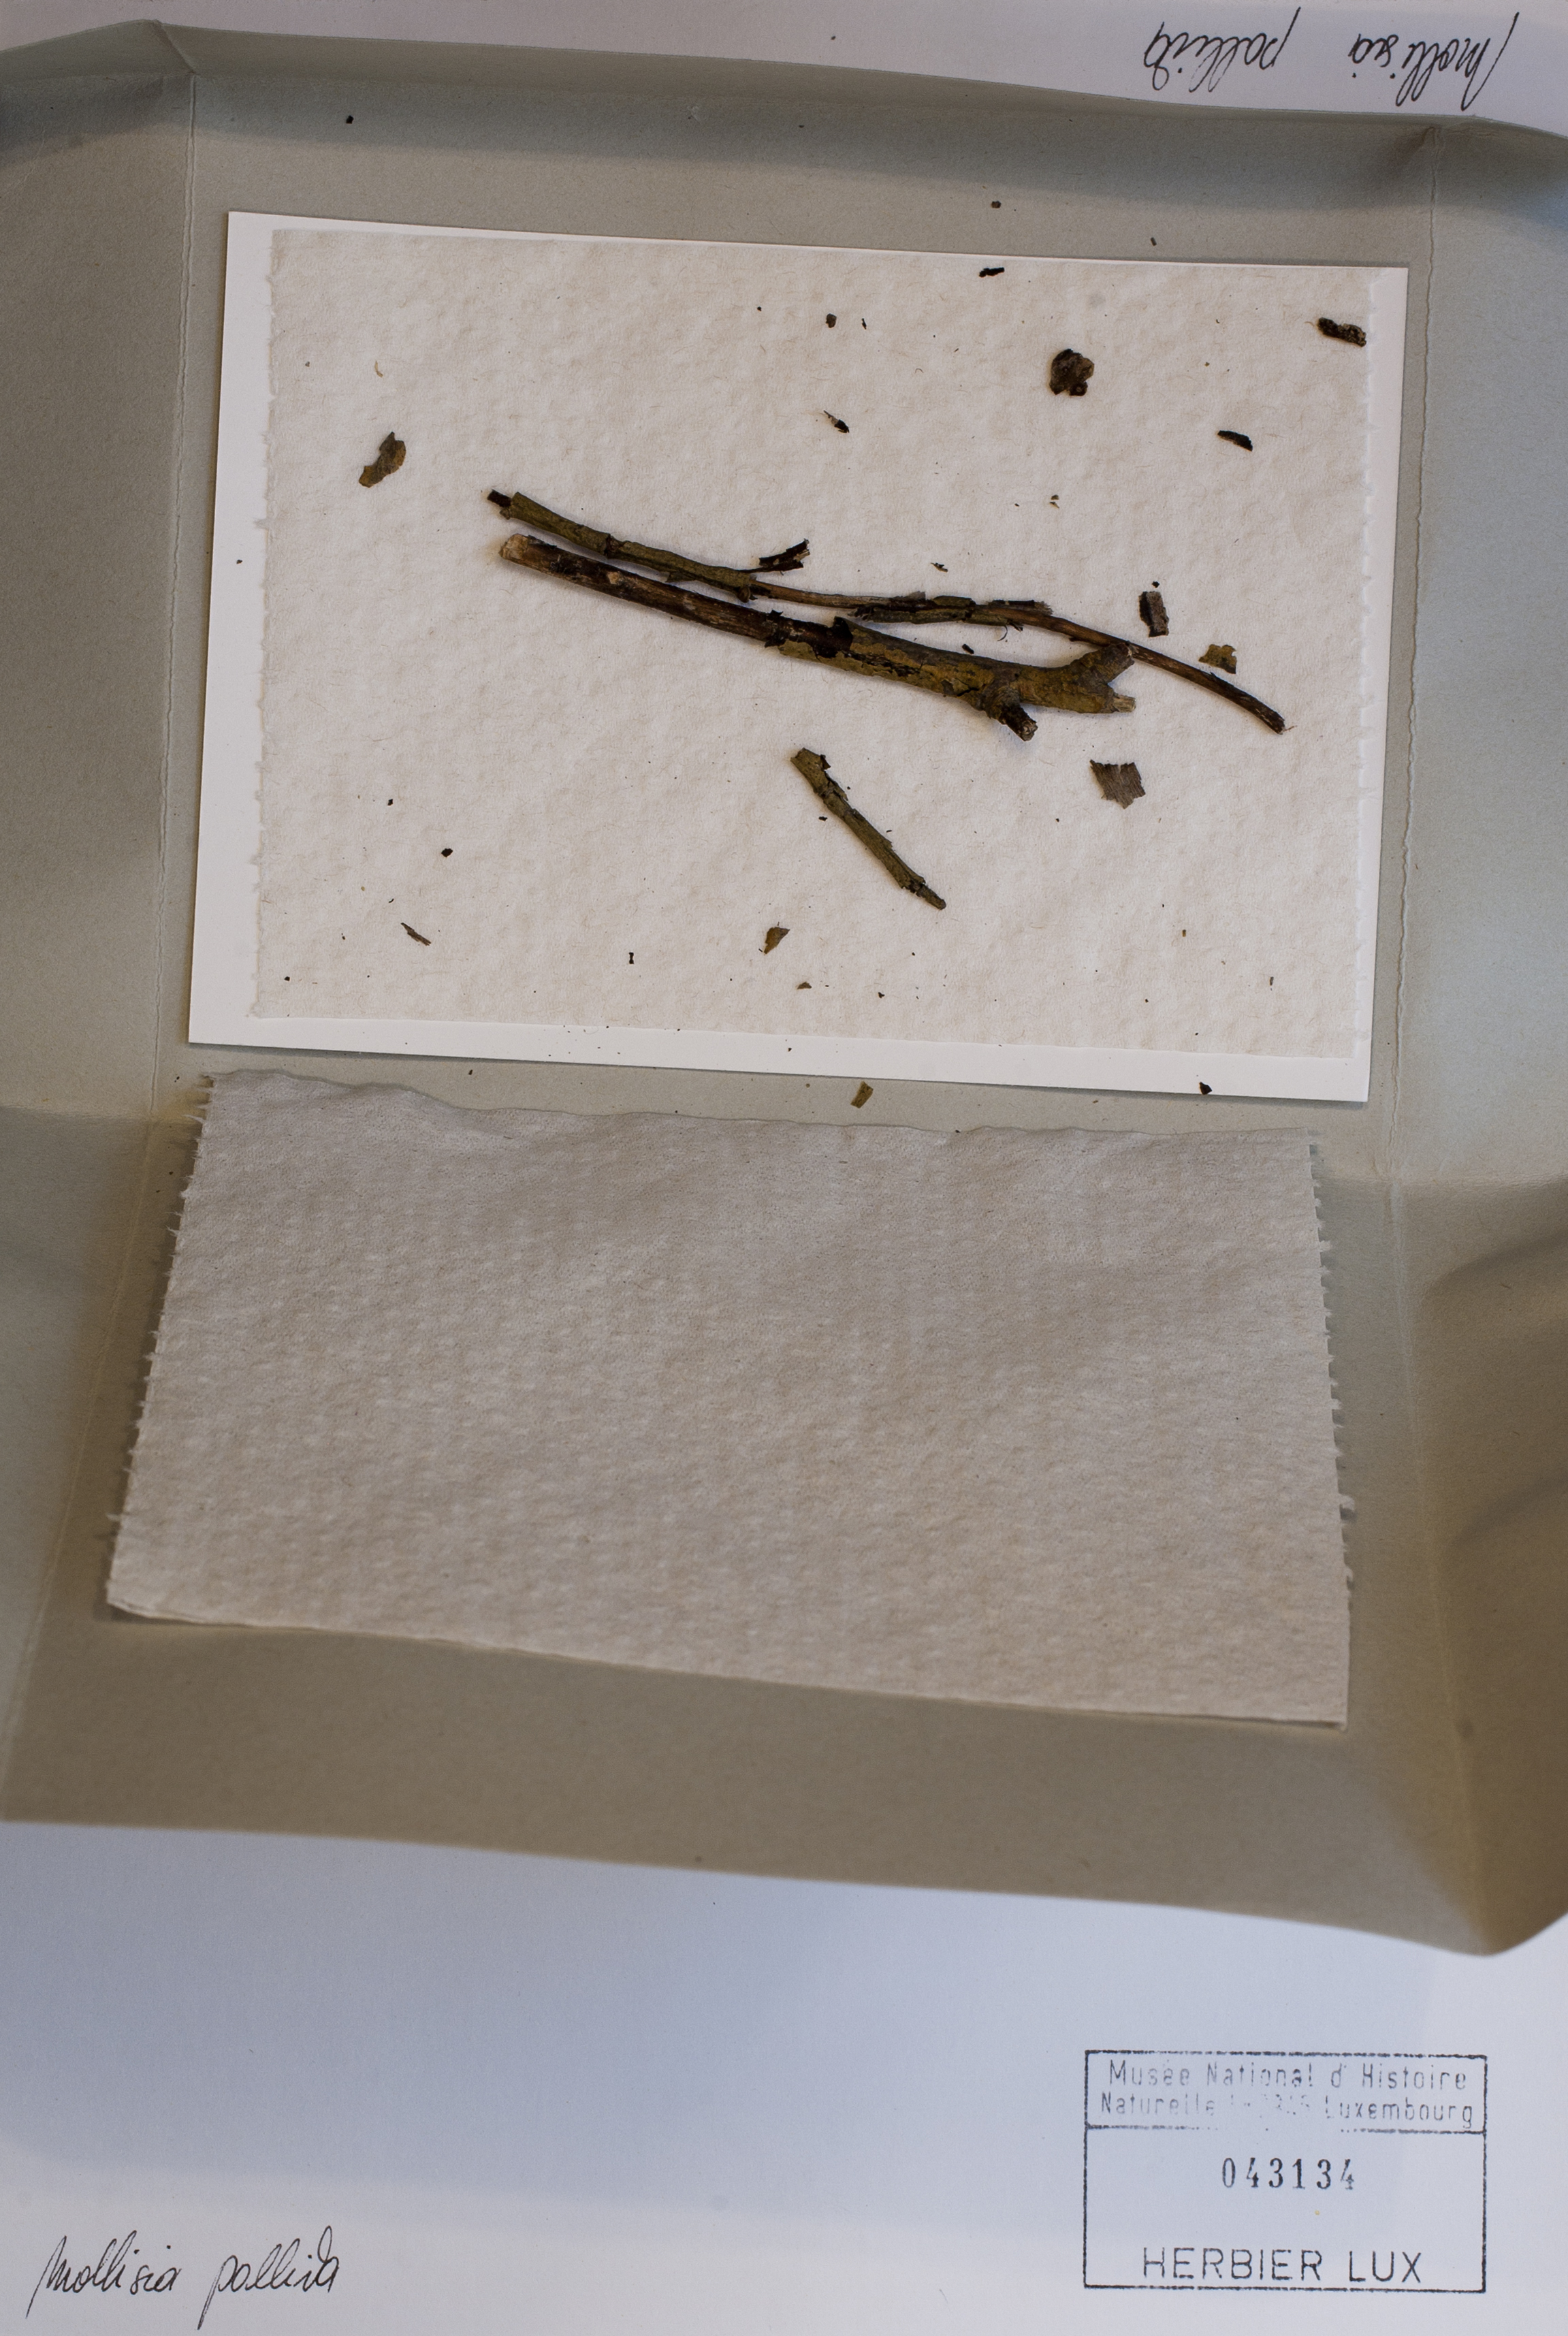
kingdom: Fungi
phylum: Ascomycota
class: Leotiomycetes
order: Helotiales
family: Mollisiaceae
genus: Mollisia
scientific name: Mollisia pallida
